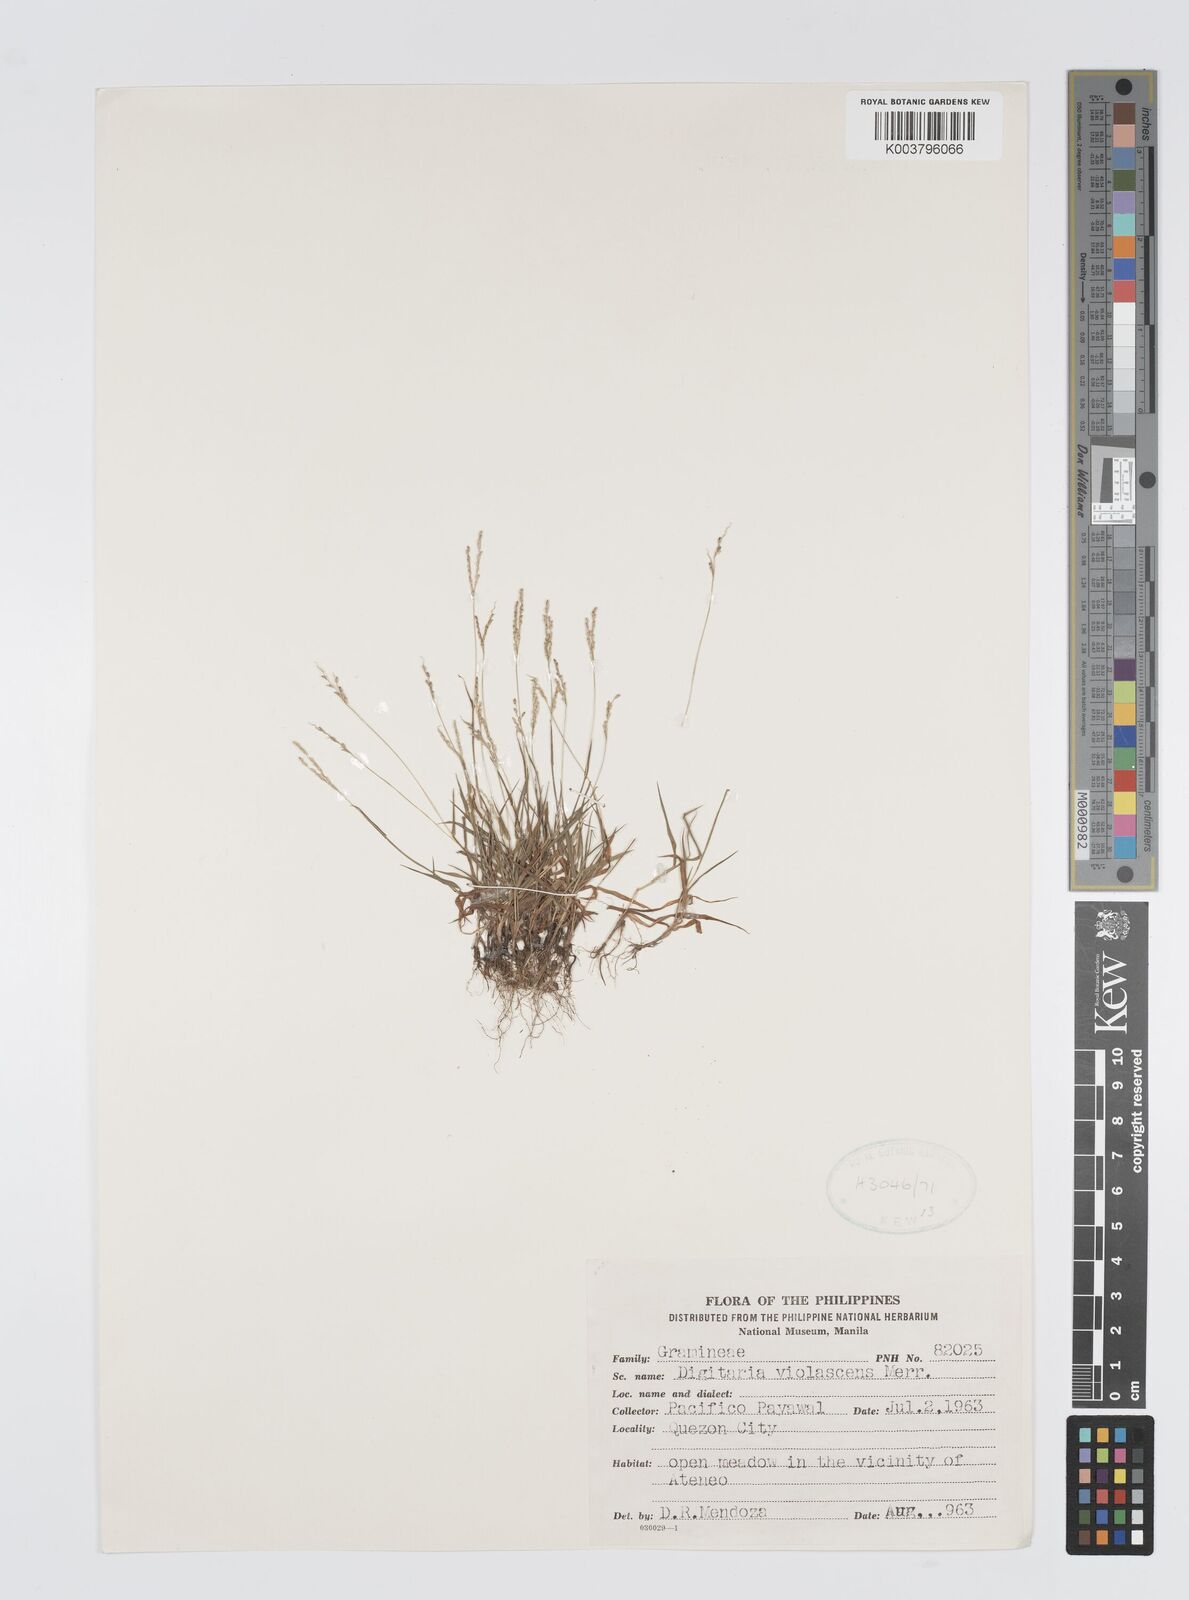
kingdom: Plantae
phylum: Tracheophyta
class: Liliopsida
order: Poales
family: Poaceae
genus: Digitaria
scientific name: Digitaria violascens
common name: Violet crabgrass
